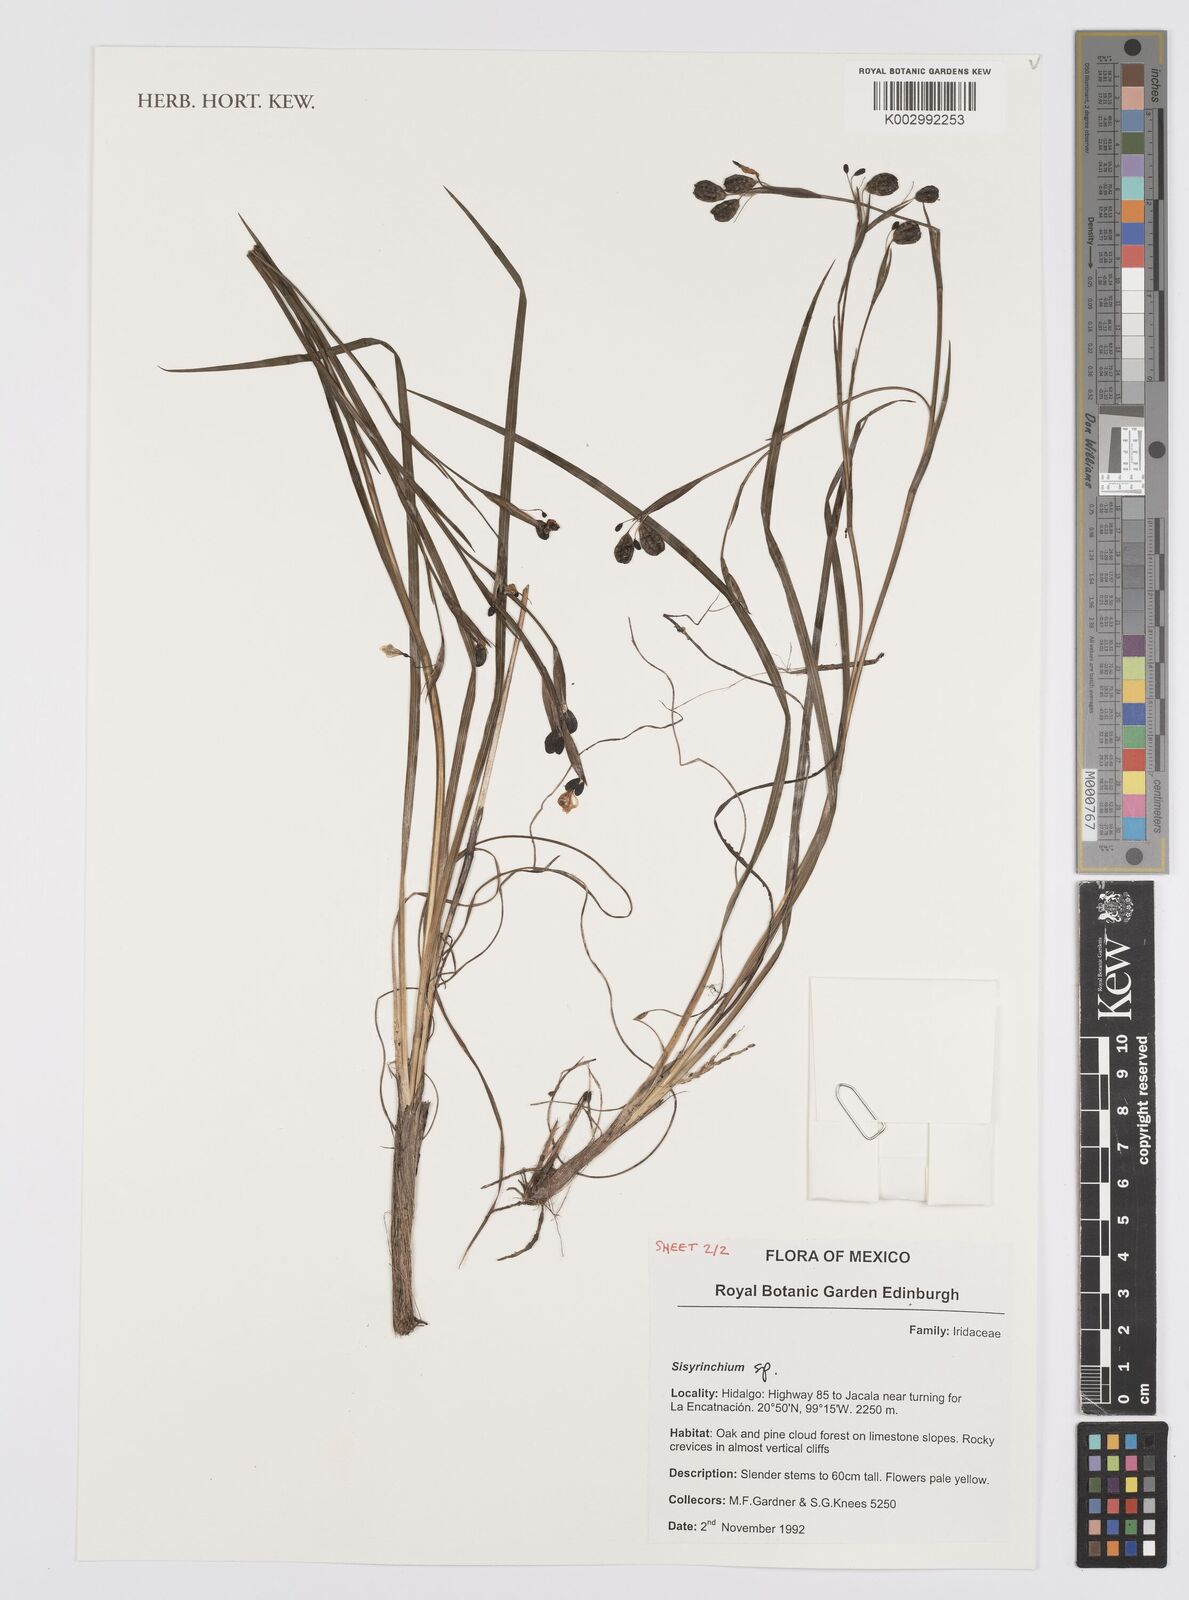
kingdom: Plantae
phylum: Tracheophyta
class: Liliopsida
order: Asparagales
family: Iridaceae
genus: Sisyrinchium
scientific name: Sisyrinchium
